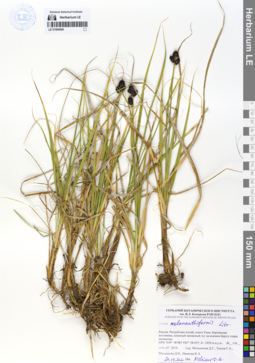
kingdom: Plantae
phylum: Tracheophyta
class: Liliopsida
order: Poales
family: Cyperaceae
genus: Carex
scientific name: Carex melananthiformis
